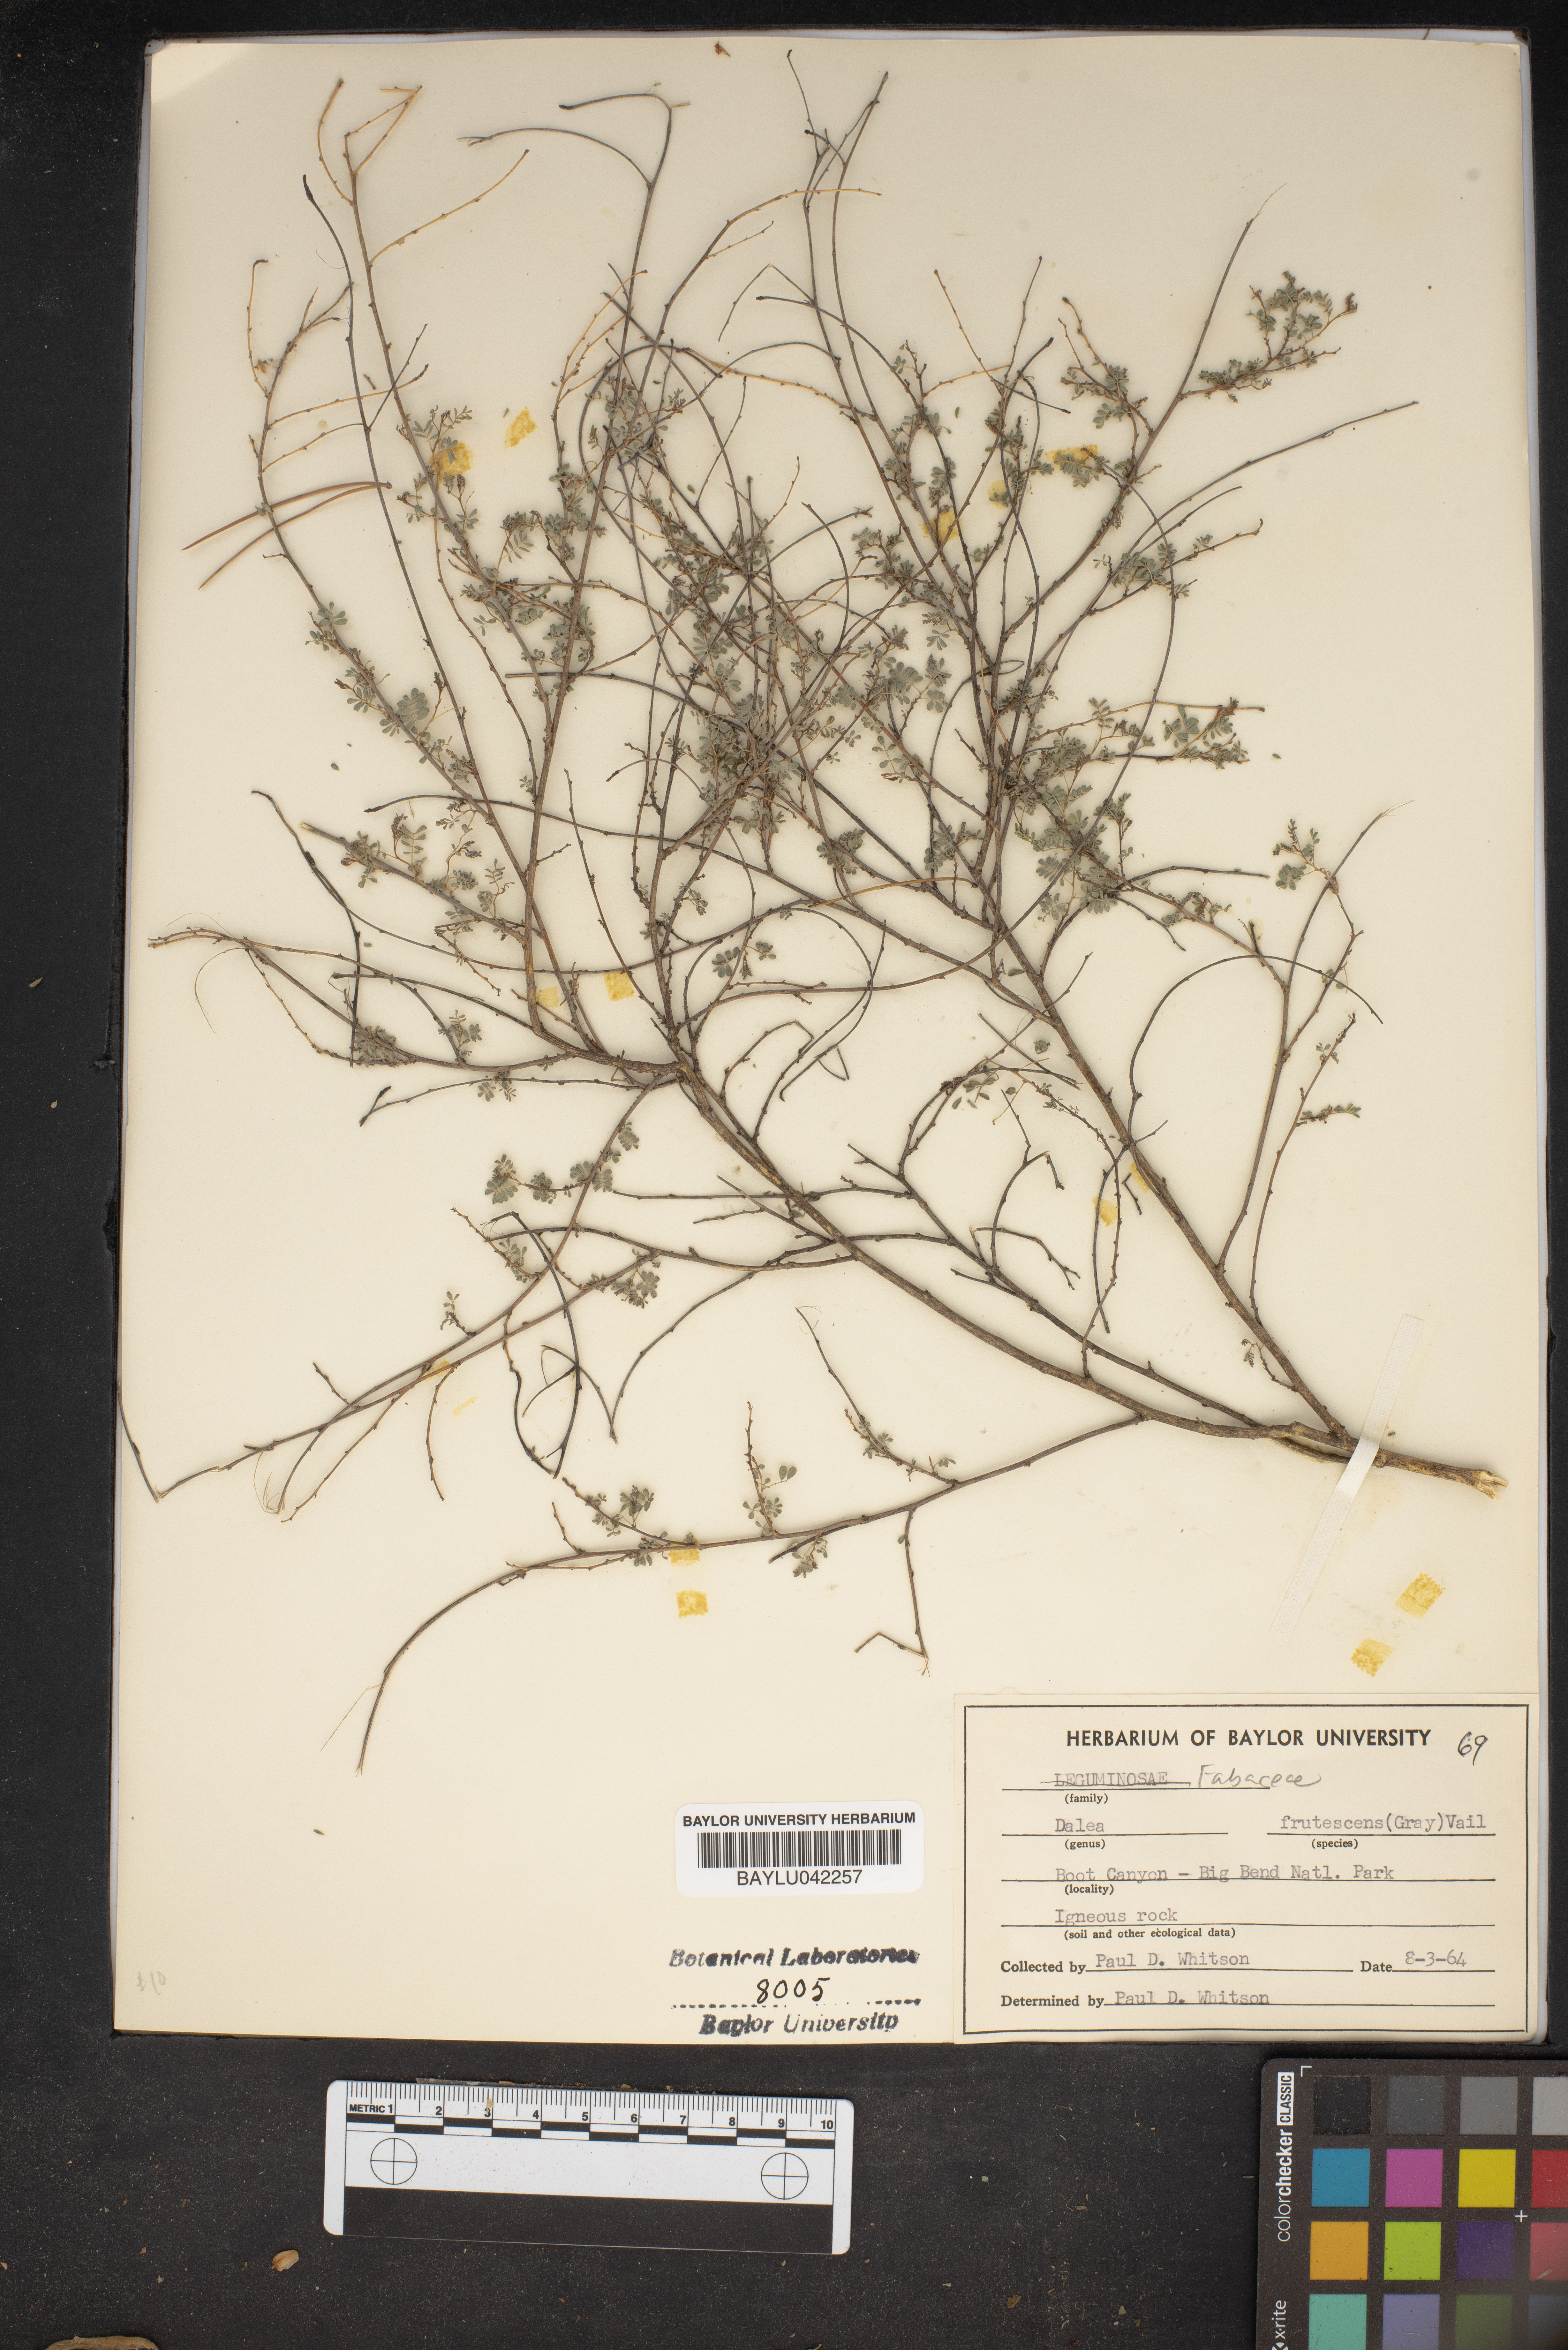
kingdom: Plantae
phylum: Tracheophyta
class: Magnoliopsida
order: Fabales
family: Fabaceae
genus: Dalea
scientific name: Dalea frutescens
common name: Black dalea
